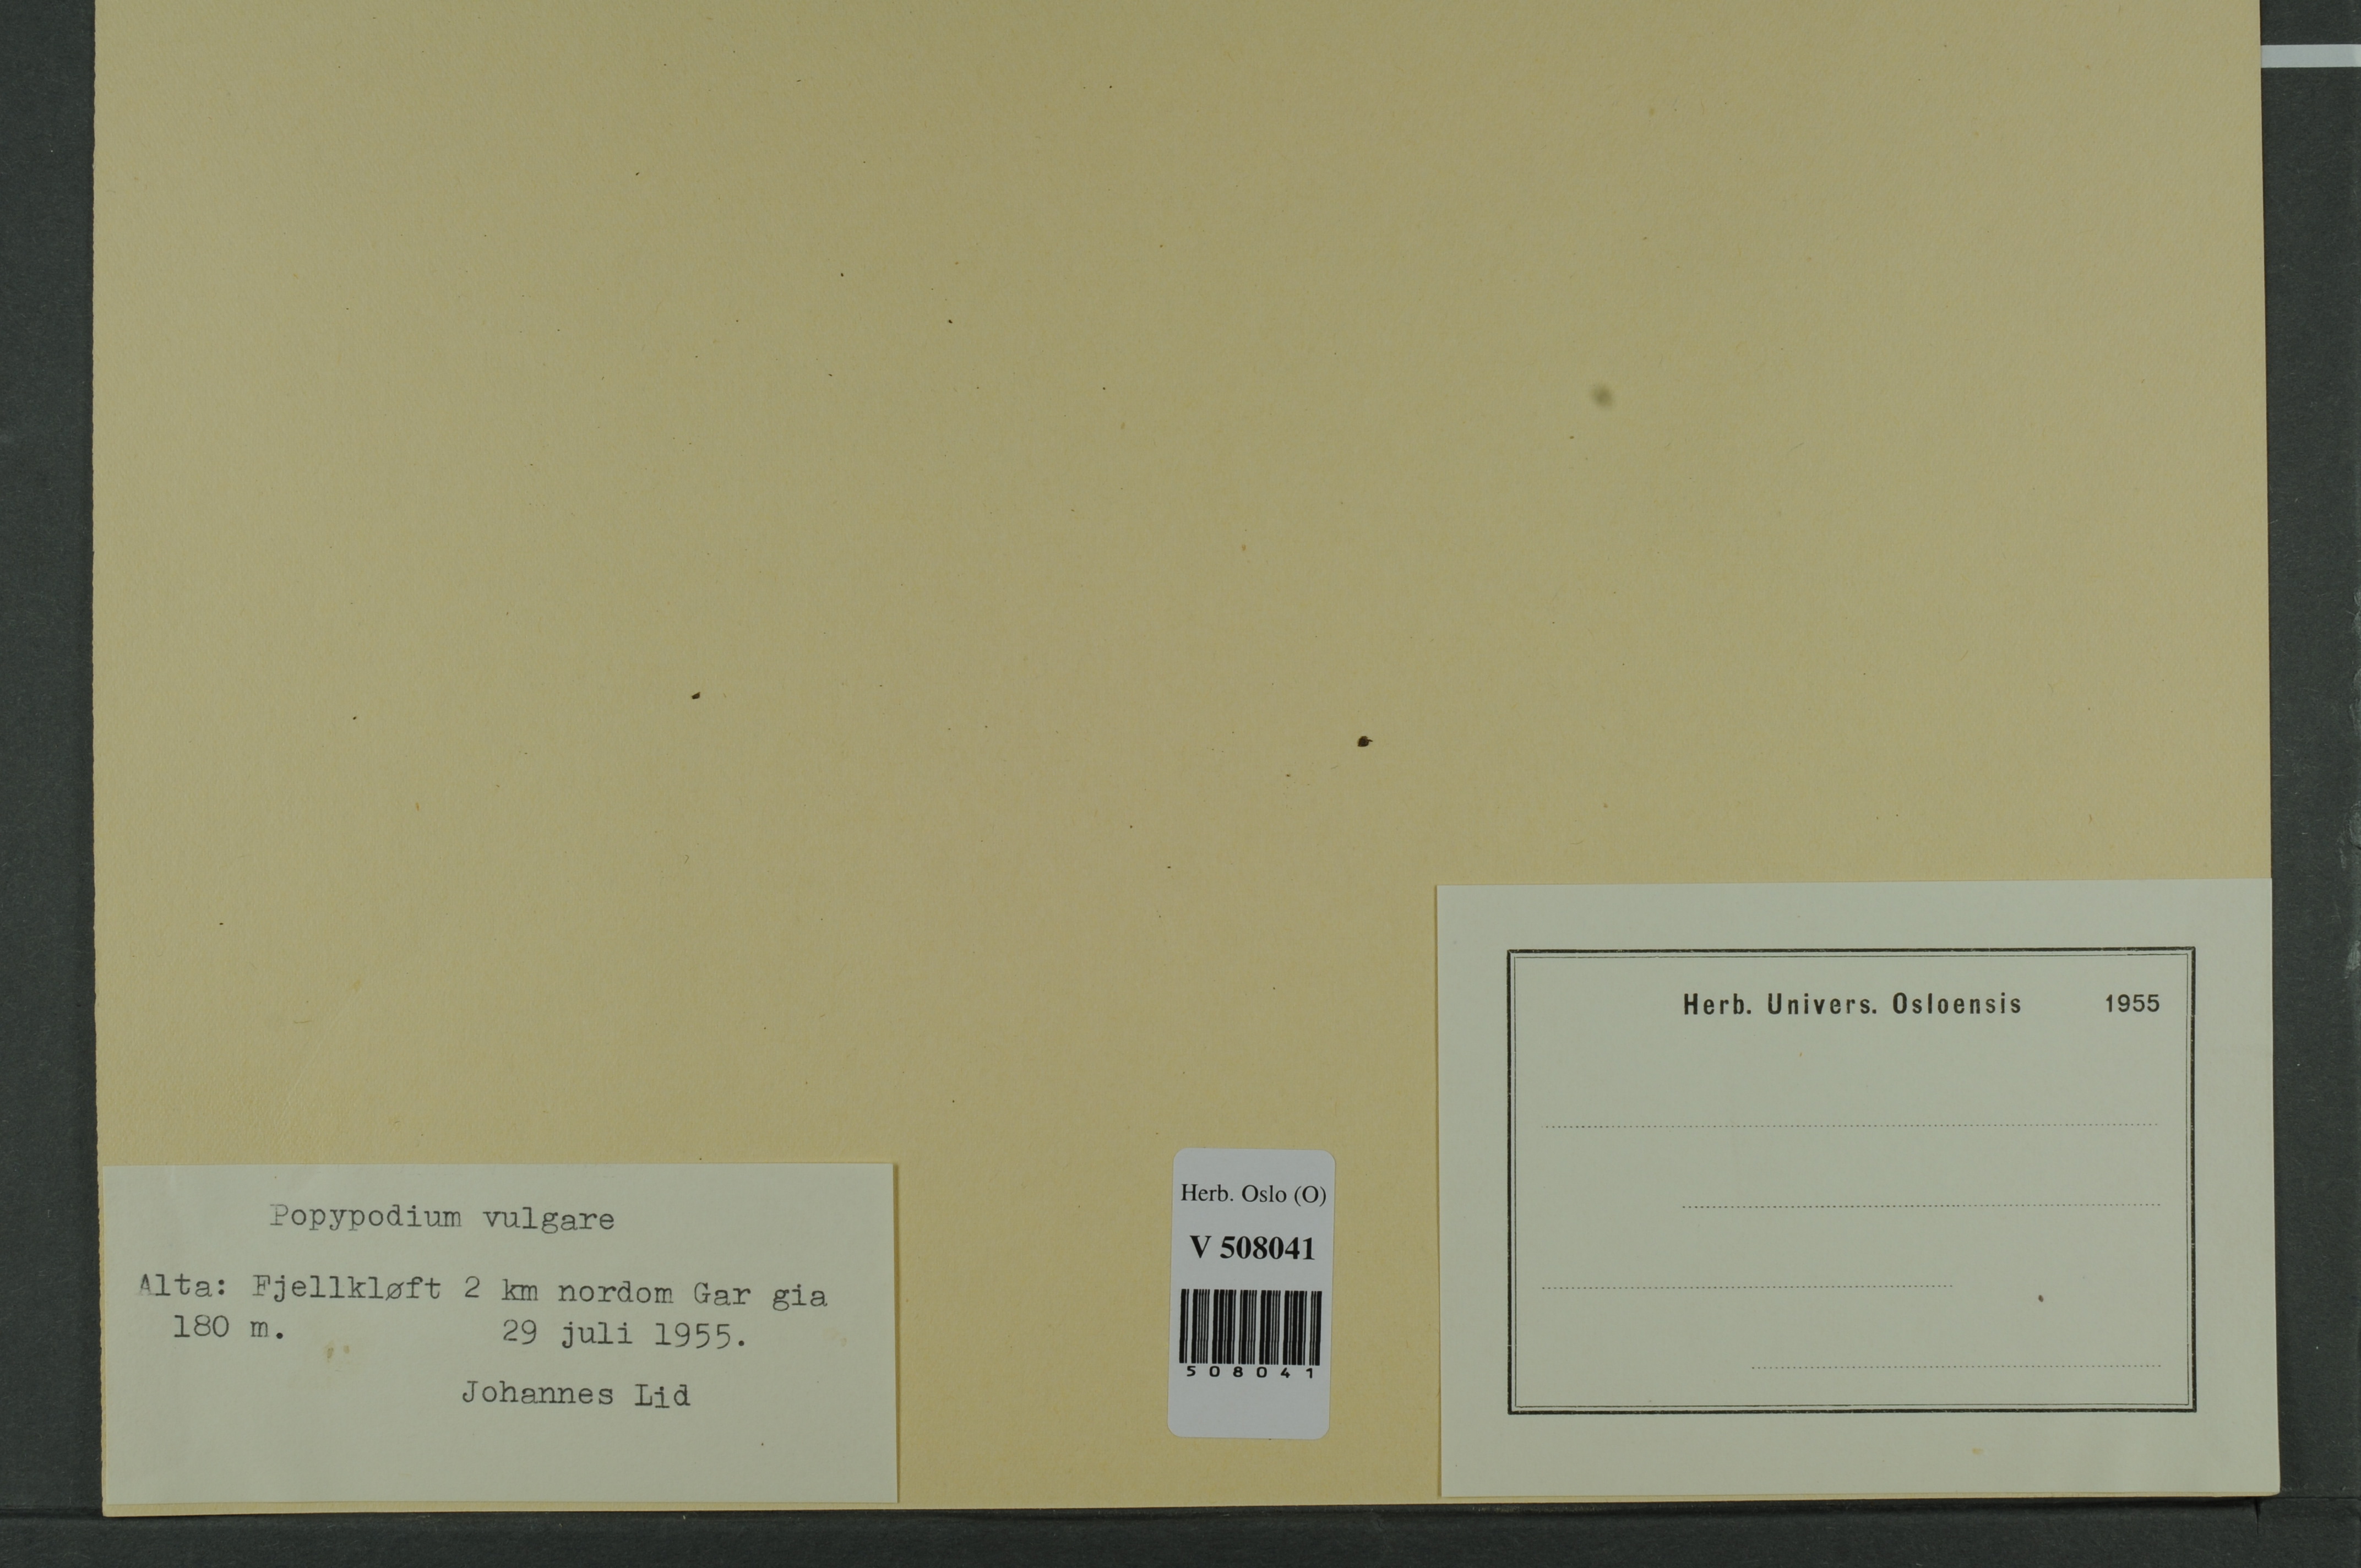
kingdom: Plantae
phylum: Tracheophyta
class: Polypodiopsida
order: Polypodiales
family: Polypodiaceae
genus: Polypodium
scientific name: Polypodium vulgare
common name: Common polypody
